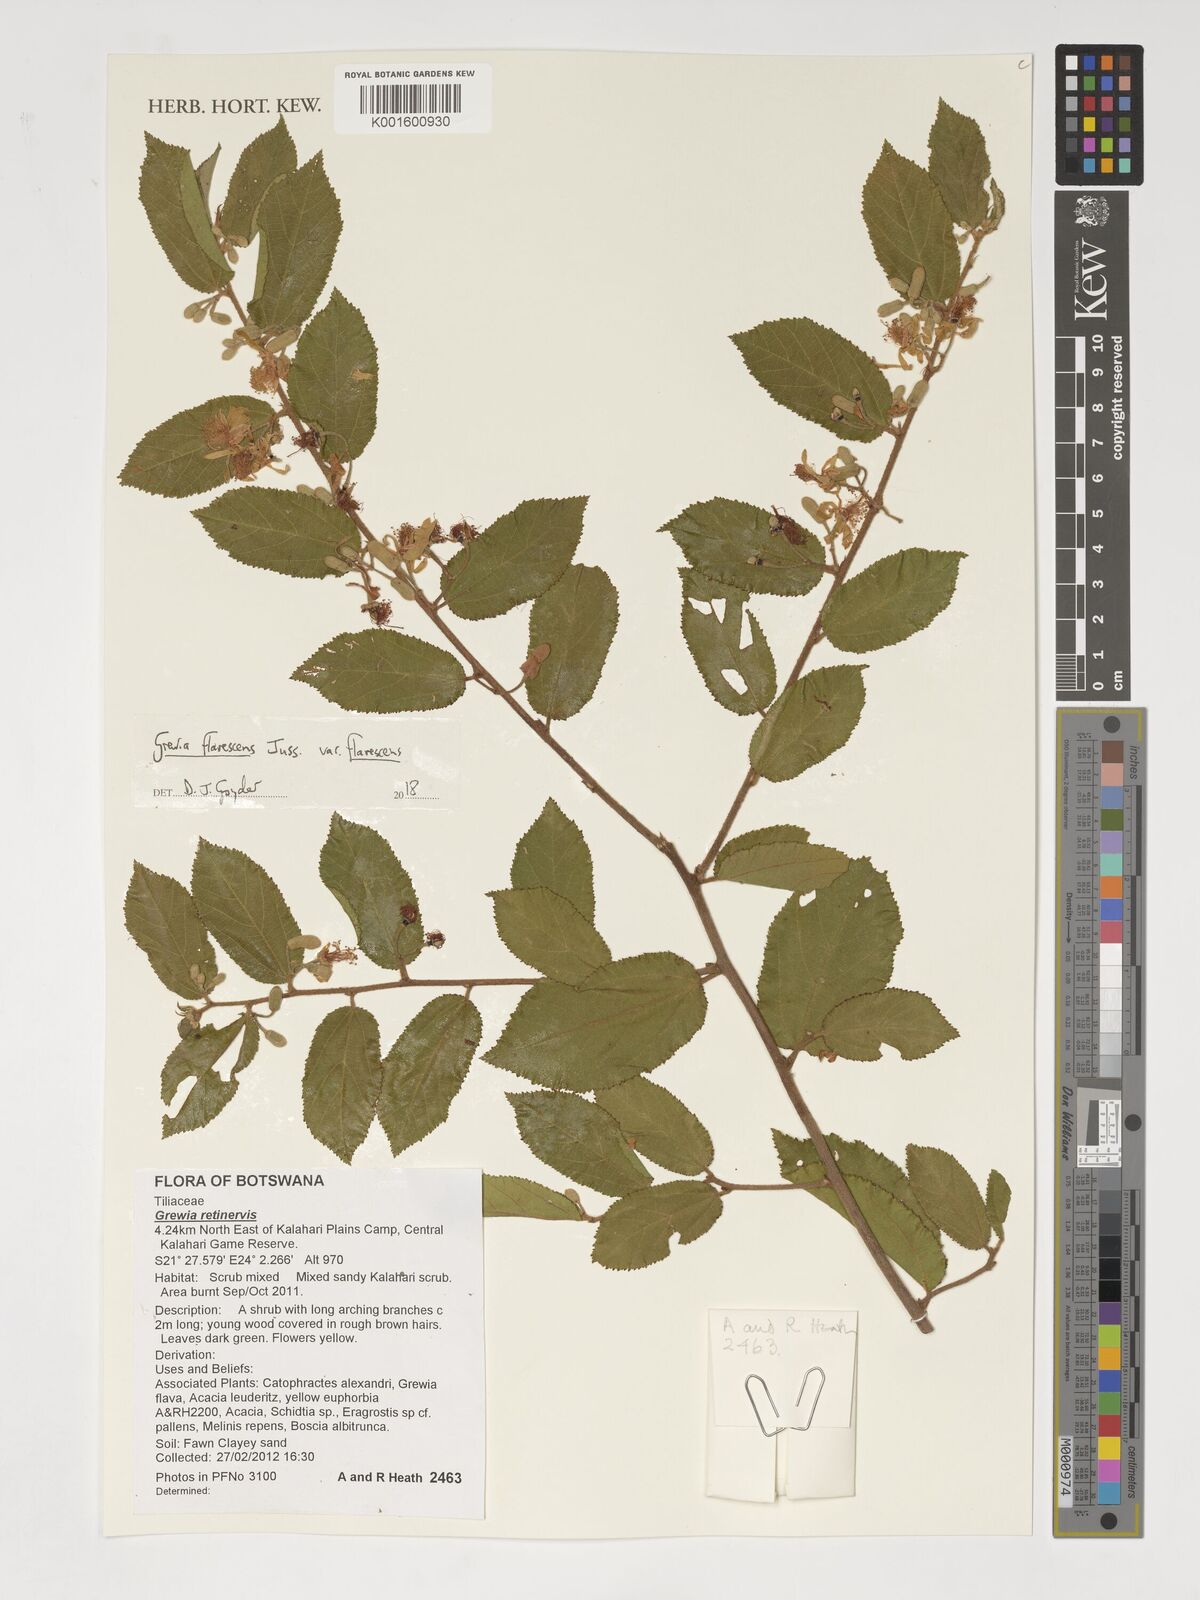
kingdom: Plantae
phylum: Tracheophyta
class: Magnoliopsida
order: Malvales
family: Malvaceae
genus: Grewia
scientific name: Grewia flavescens
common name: Sandpaper raisin
